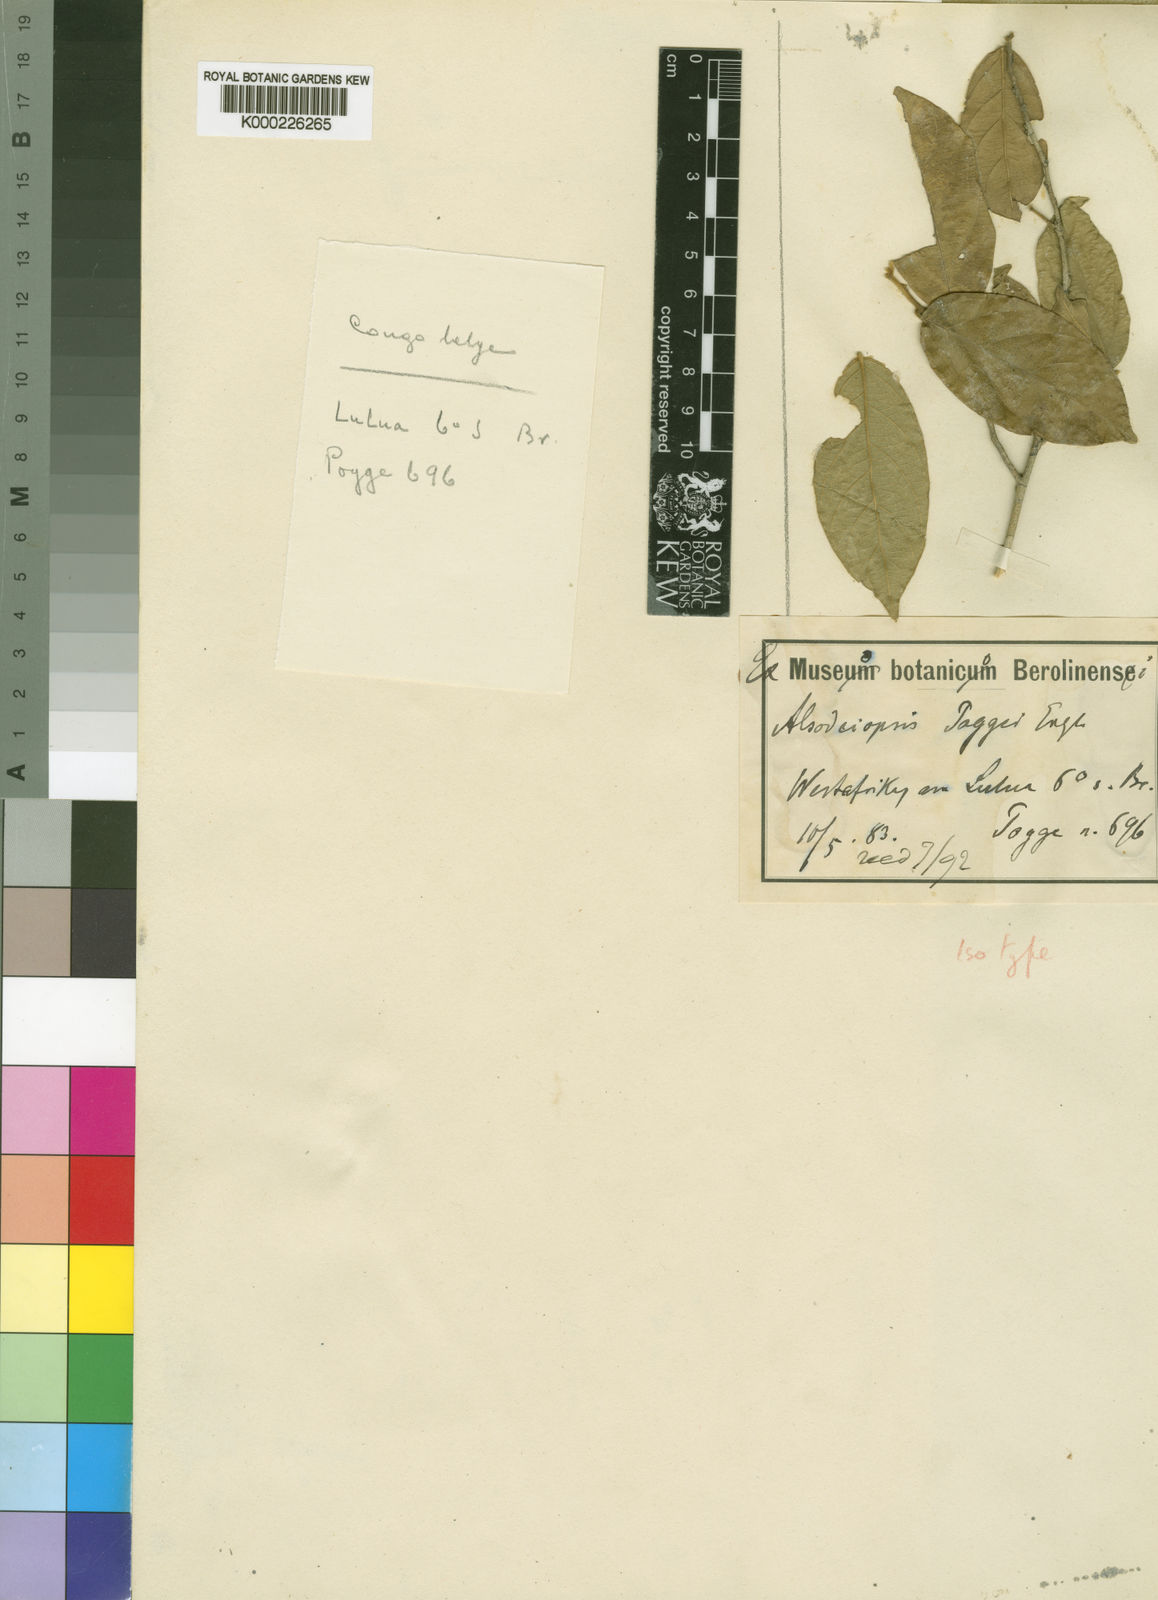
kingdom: Plantae
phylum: Tracheophyta
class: Magnoliopsida
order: Icacinales
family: Icacinaceae
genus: Alsodeiopsis
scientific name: Alsodeiopsis poggei
